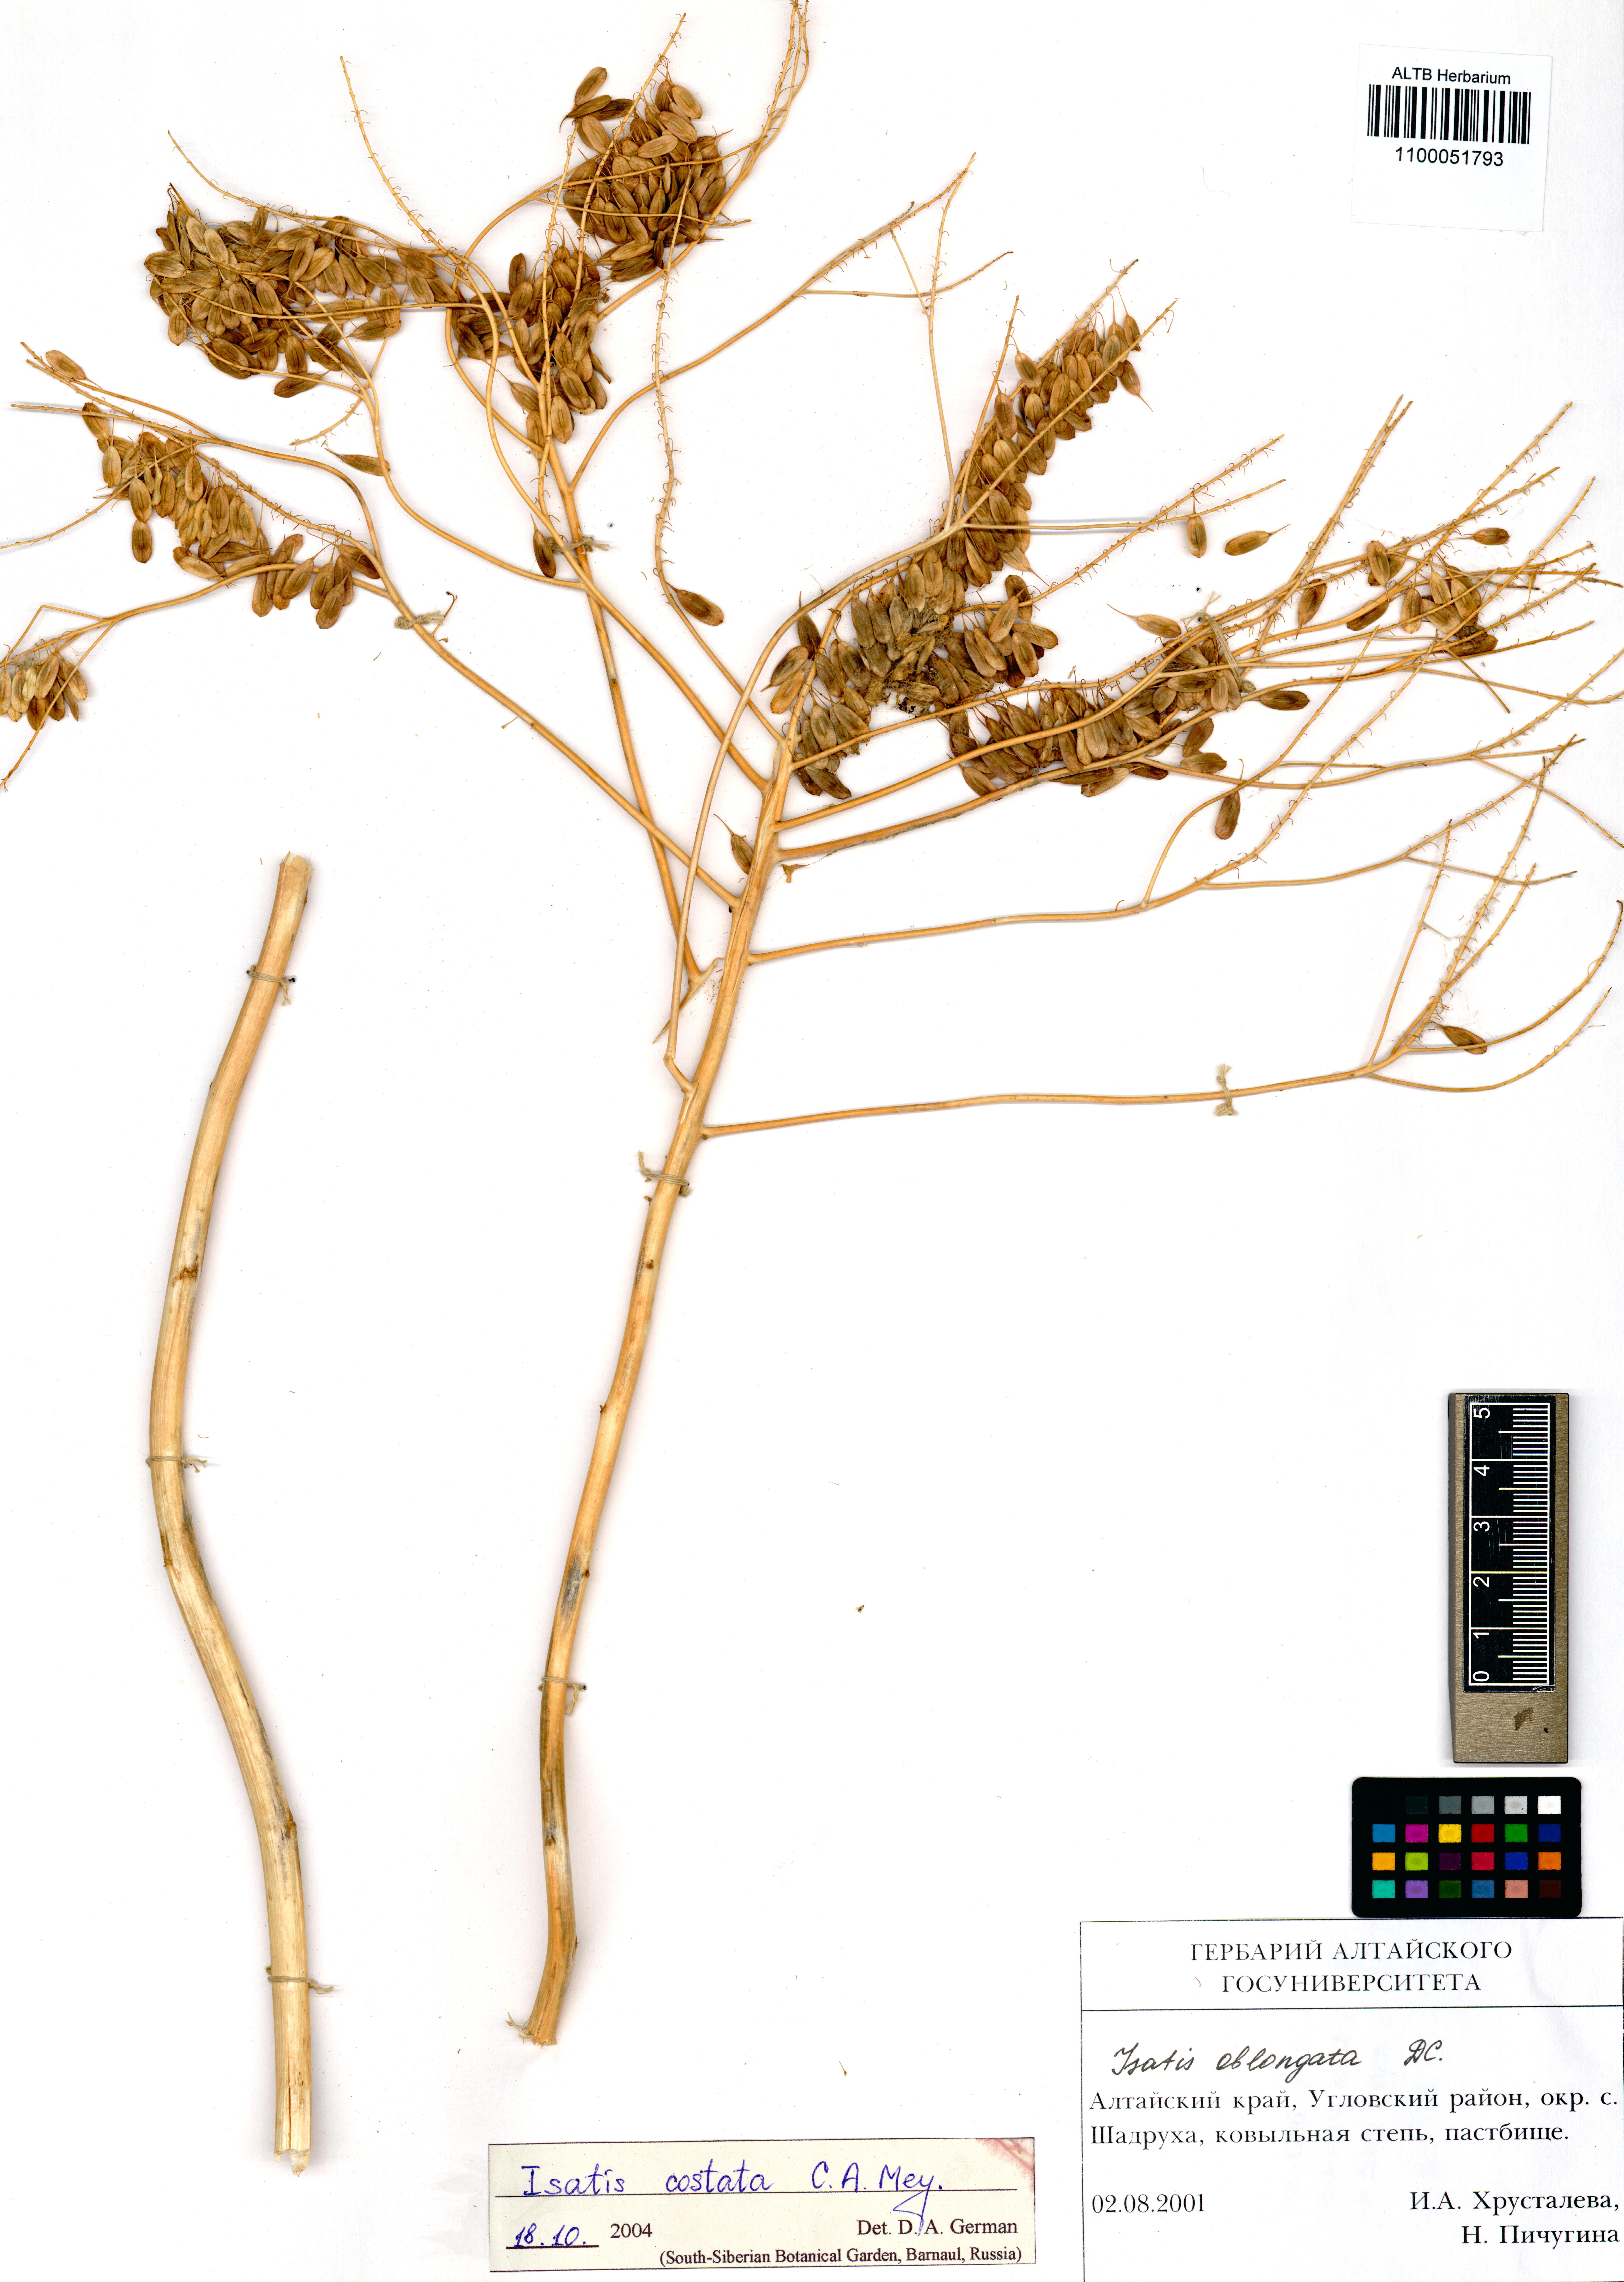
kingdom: Plantae
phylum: Tracheophyta
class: Magnoliopsida
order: Brassicales
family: Brassicaceae
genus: Isatis
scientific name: Isatis costata
